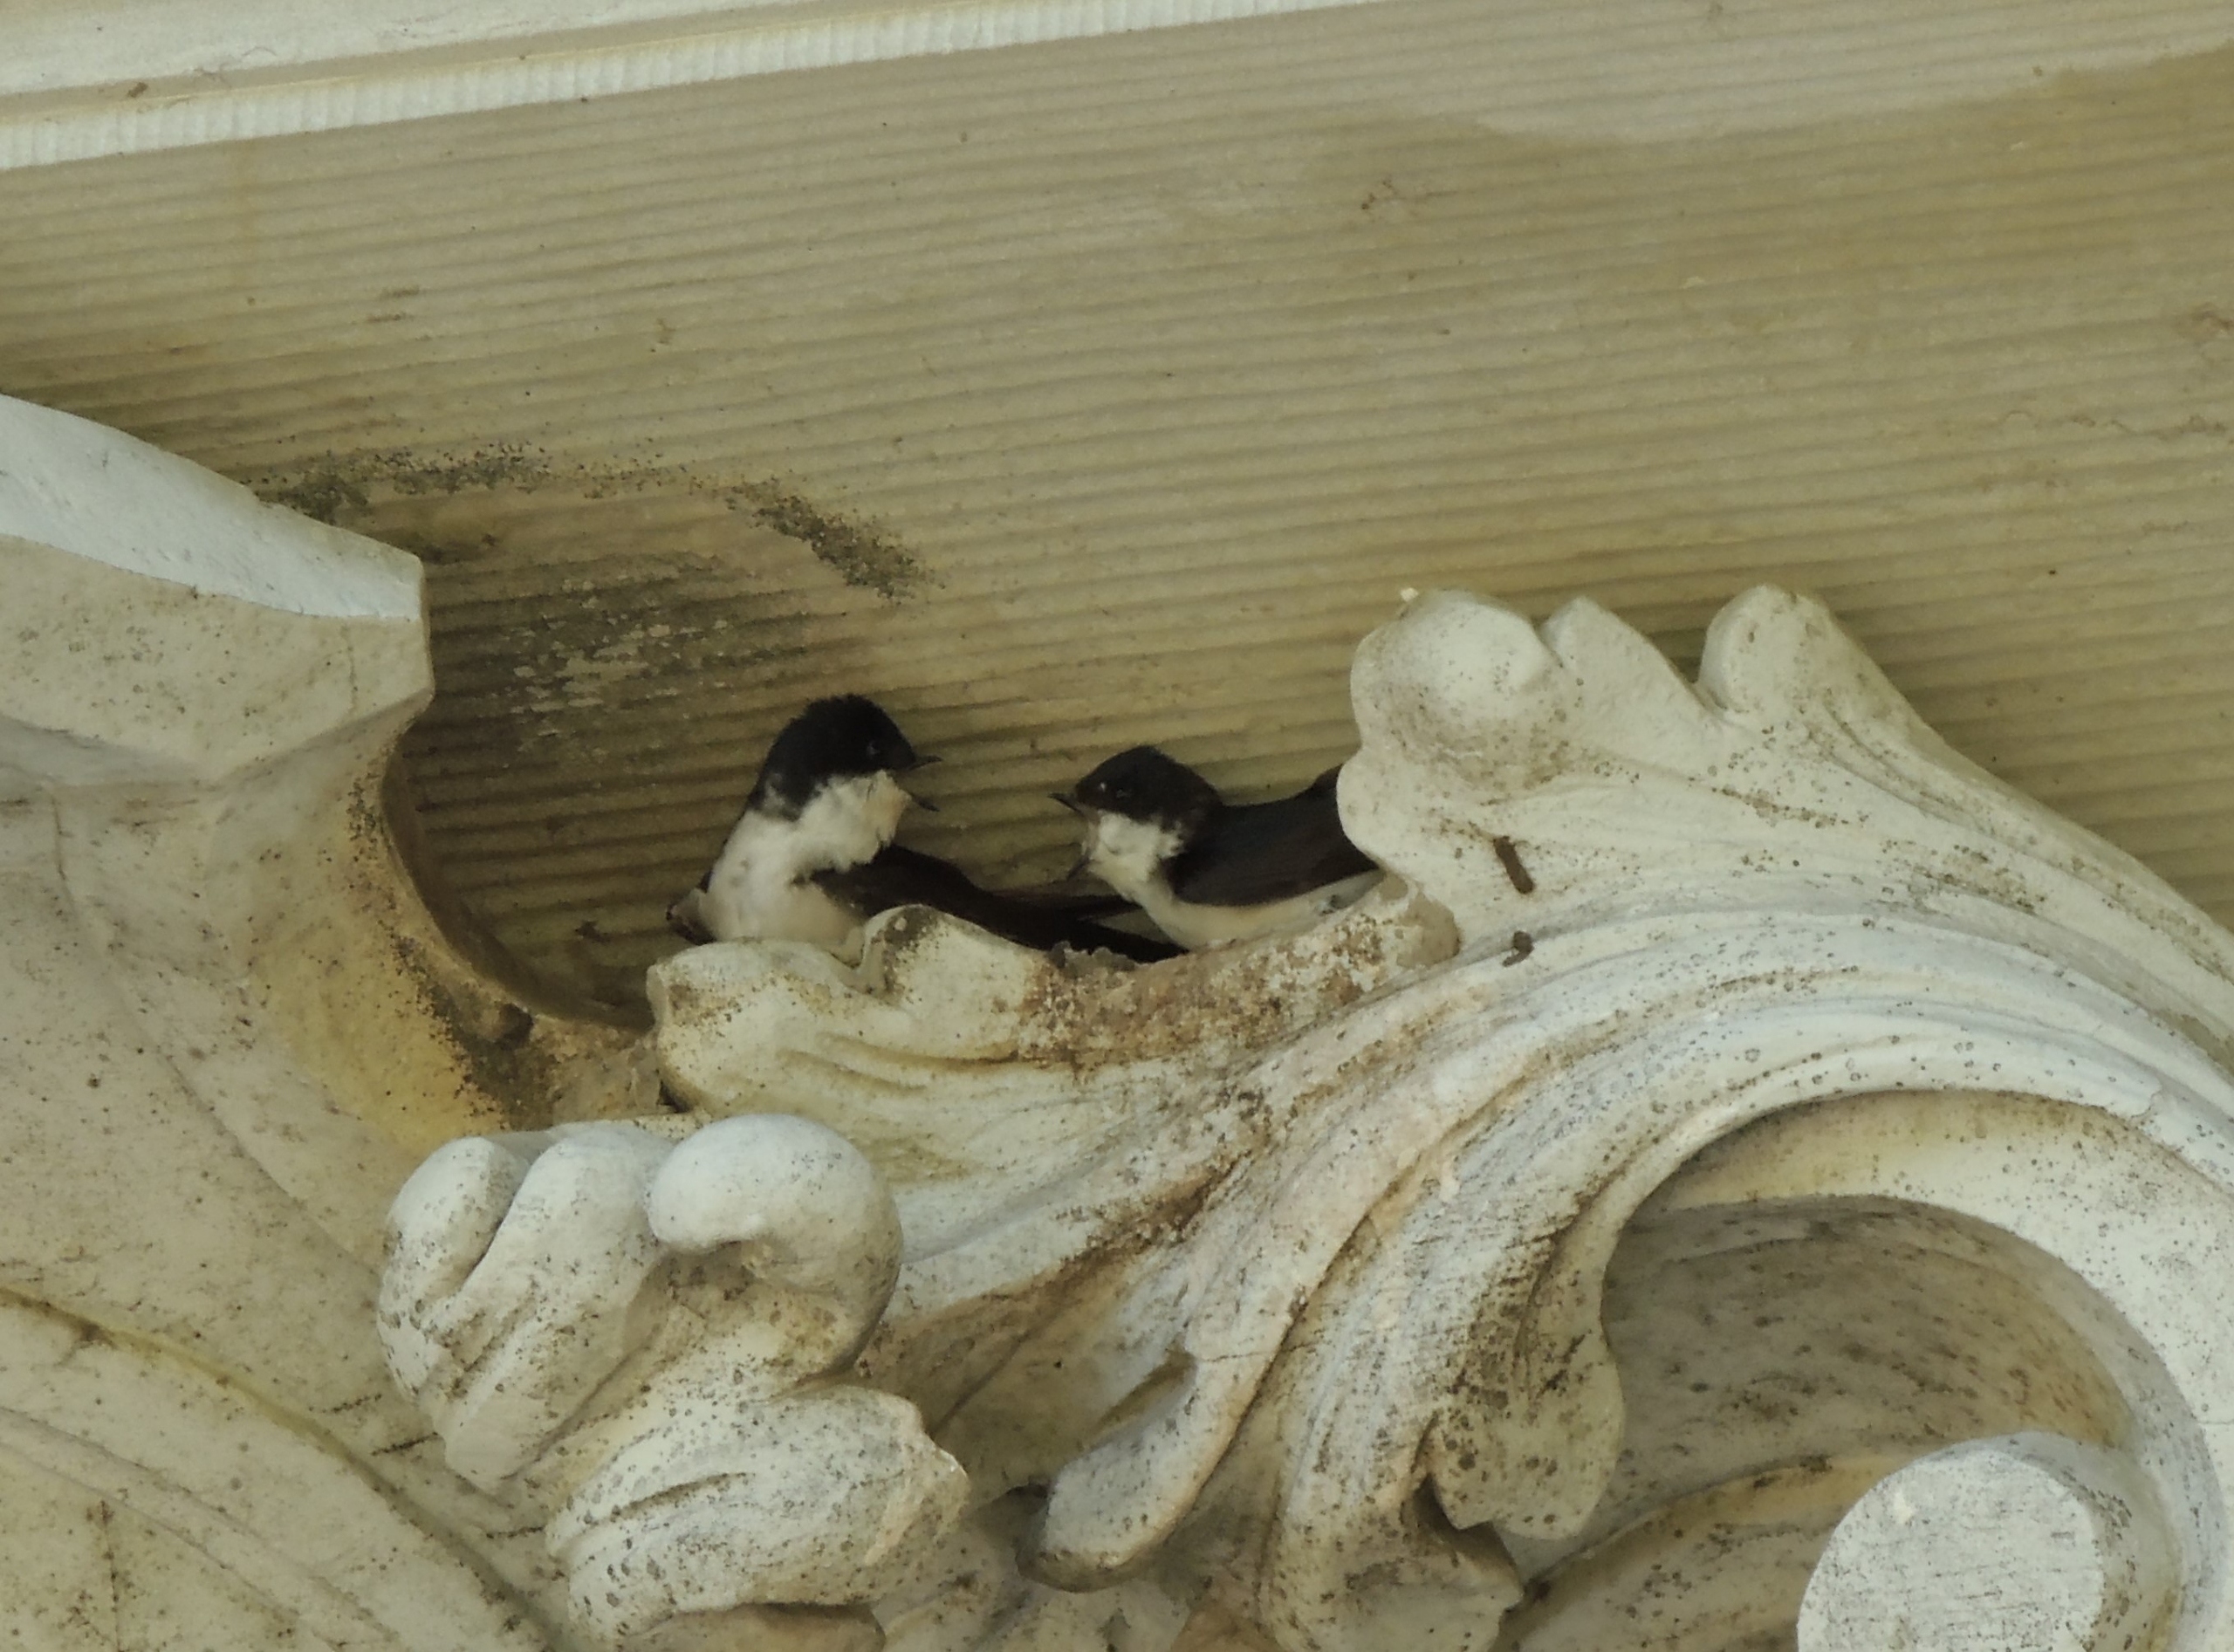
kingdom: Animalia
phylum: Chordata
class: Aves
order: Passeriformes
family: Hirundinidae
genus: Delichon
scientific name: Delichon urbicum
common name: Bysvale
